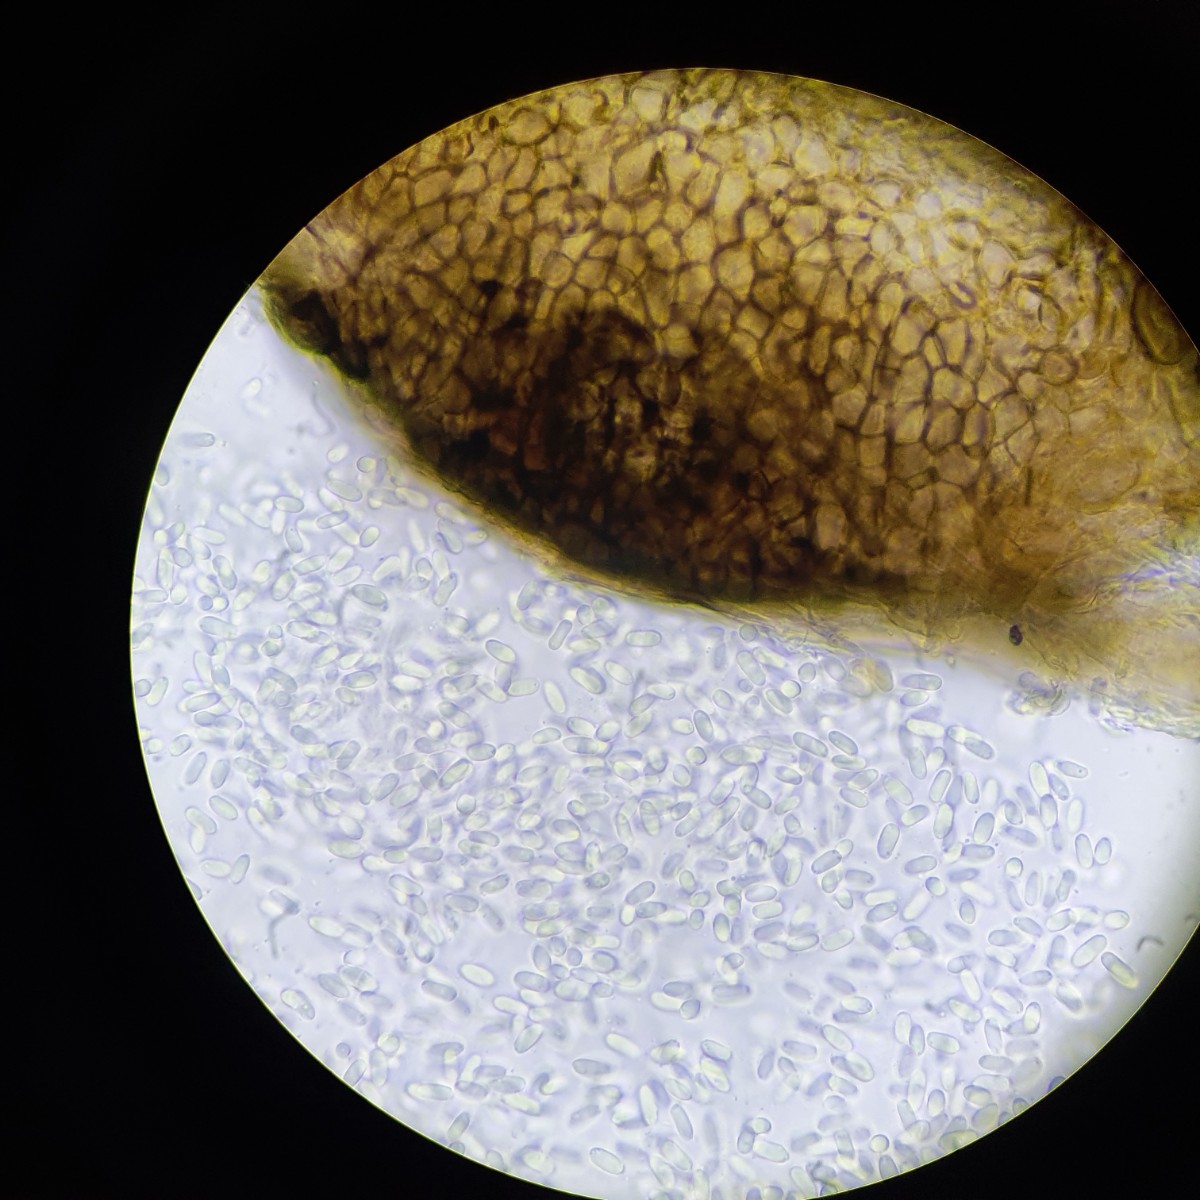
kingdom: Fungi
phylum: Ascomycota
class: Dothideomycetes
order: Pleosporales
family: Didymellaceae
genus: Ascochyta
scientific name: Ascochyta boltshauseri
